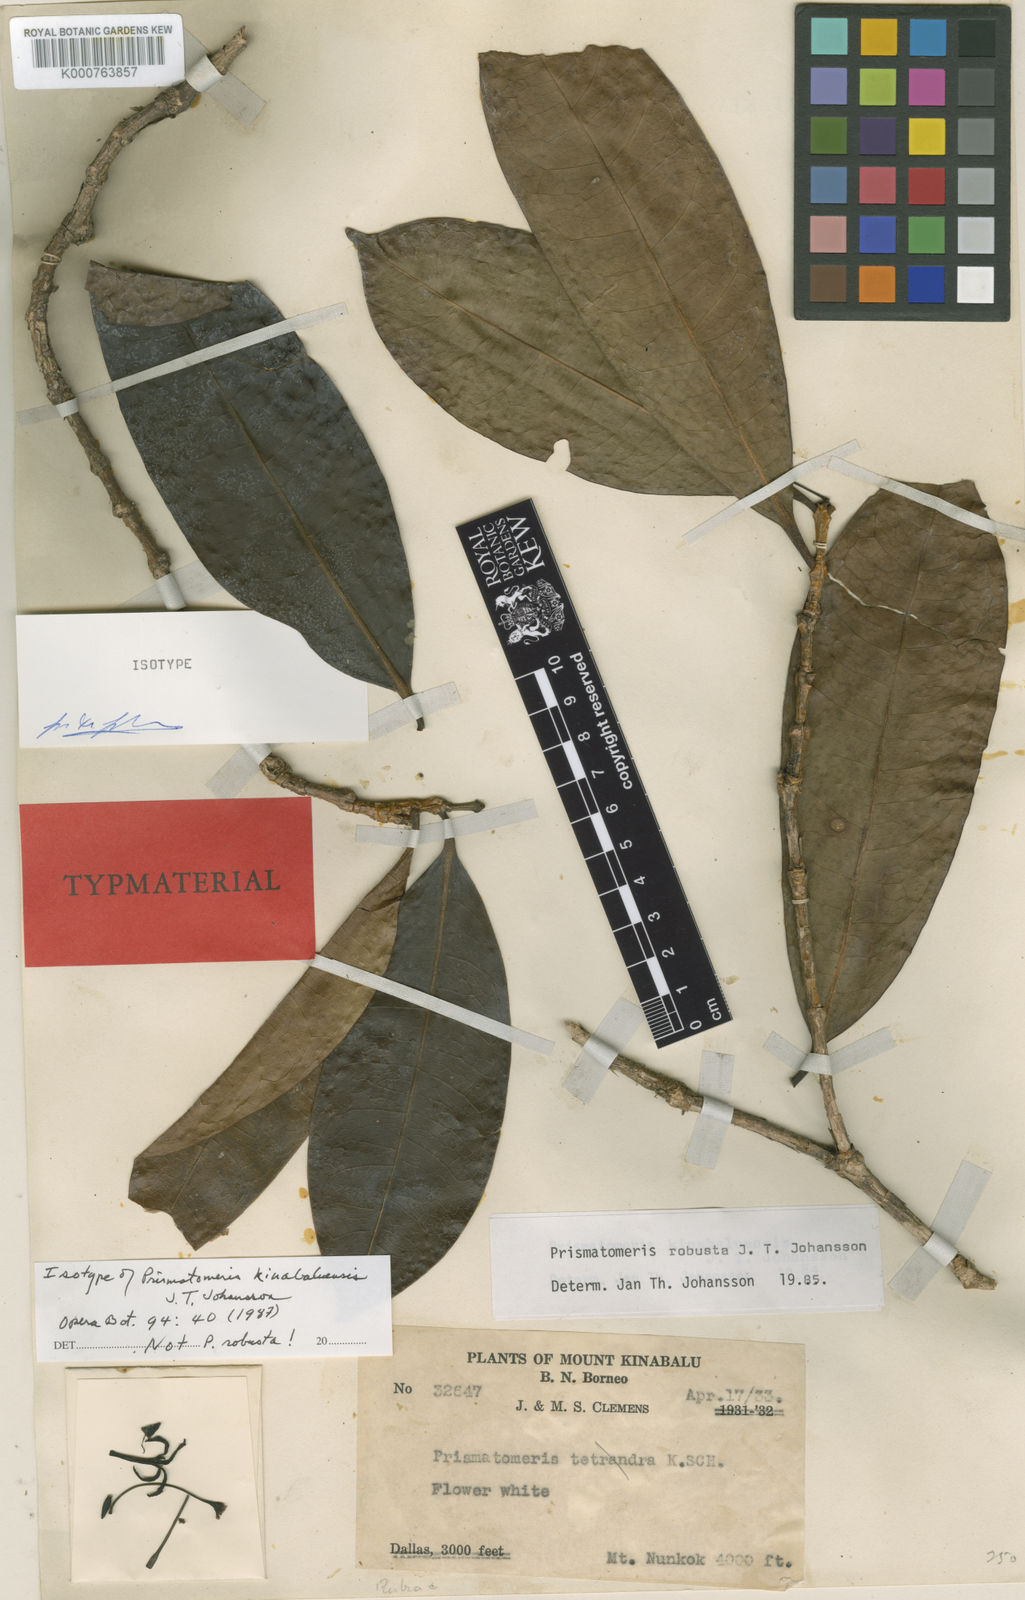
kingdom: Plantae
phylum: Tracheophyta
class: Magnoliopsida
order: Gentianales
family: Rubiaceae
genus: Prismatomeris
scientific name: Prismatomeris kinabaluensis
